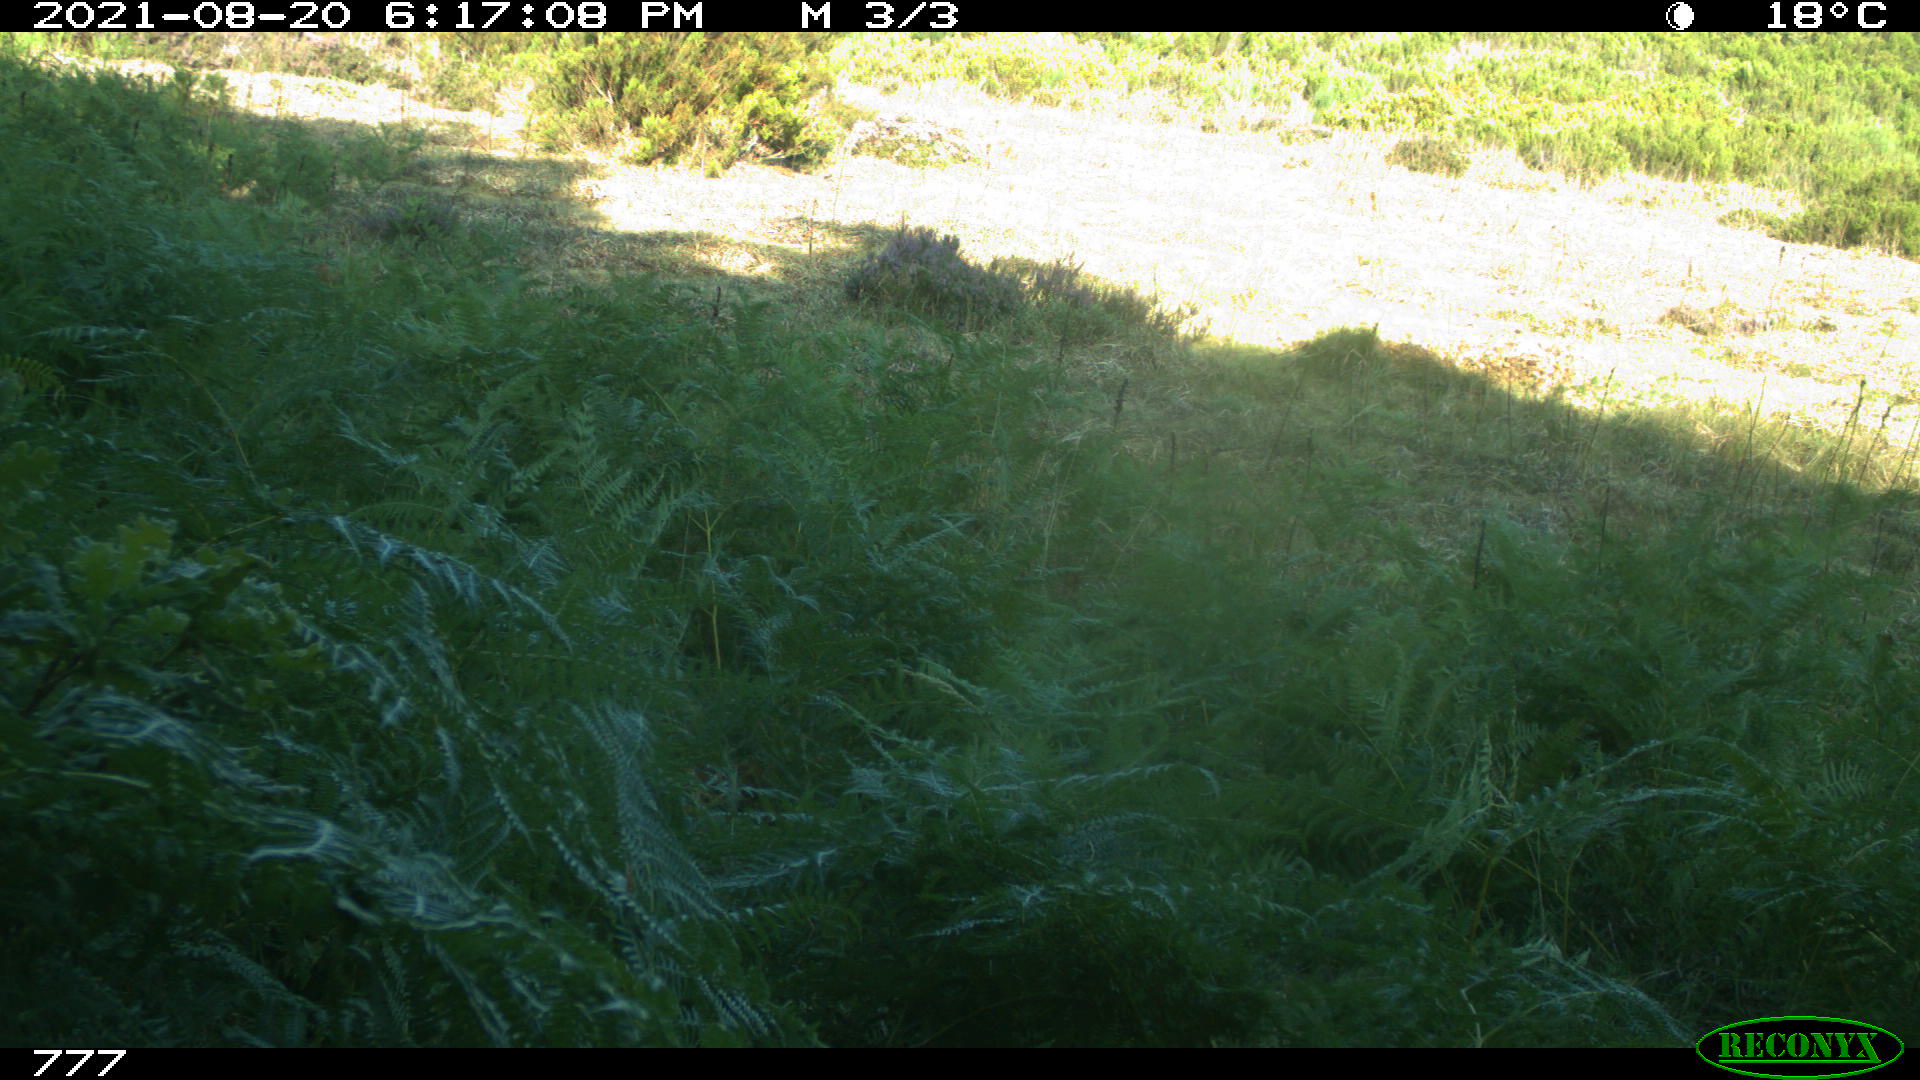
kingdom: Animalia
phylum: Chordata
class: Mammalia
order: Artiodactyla
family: Bovidae
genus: Bos
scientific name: Bos taurus
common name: Domesticated cattle
